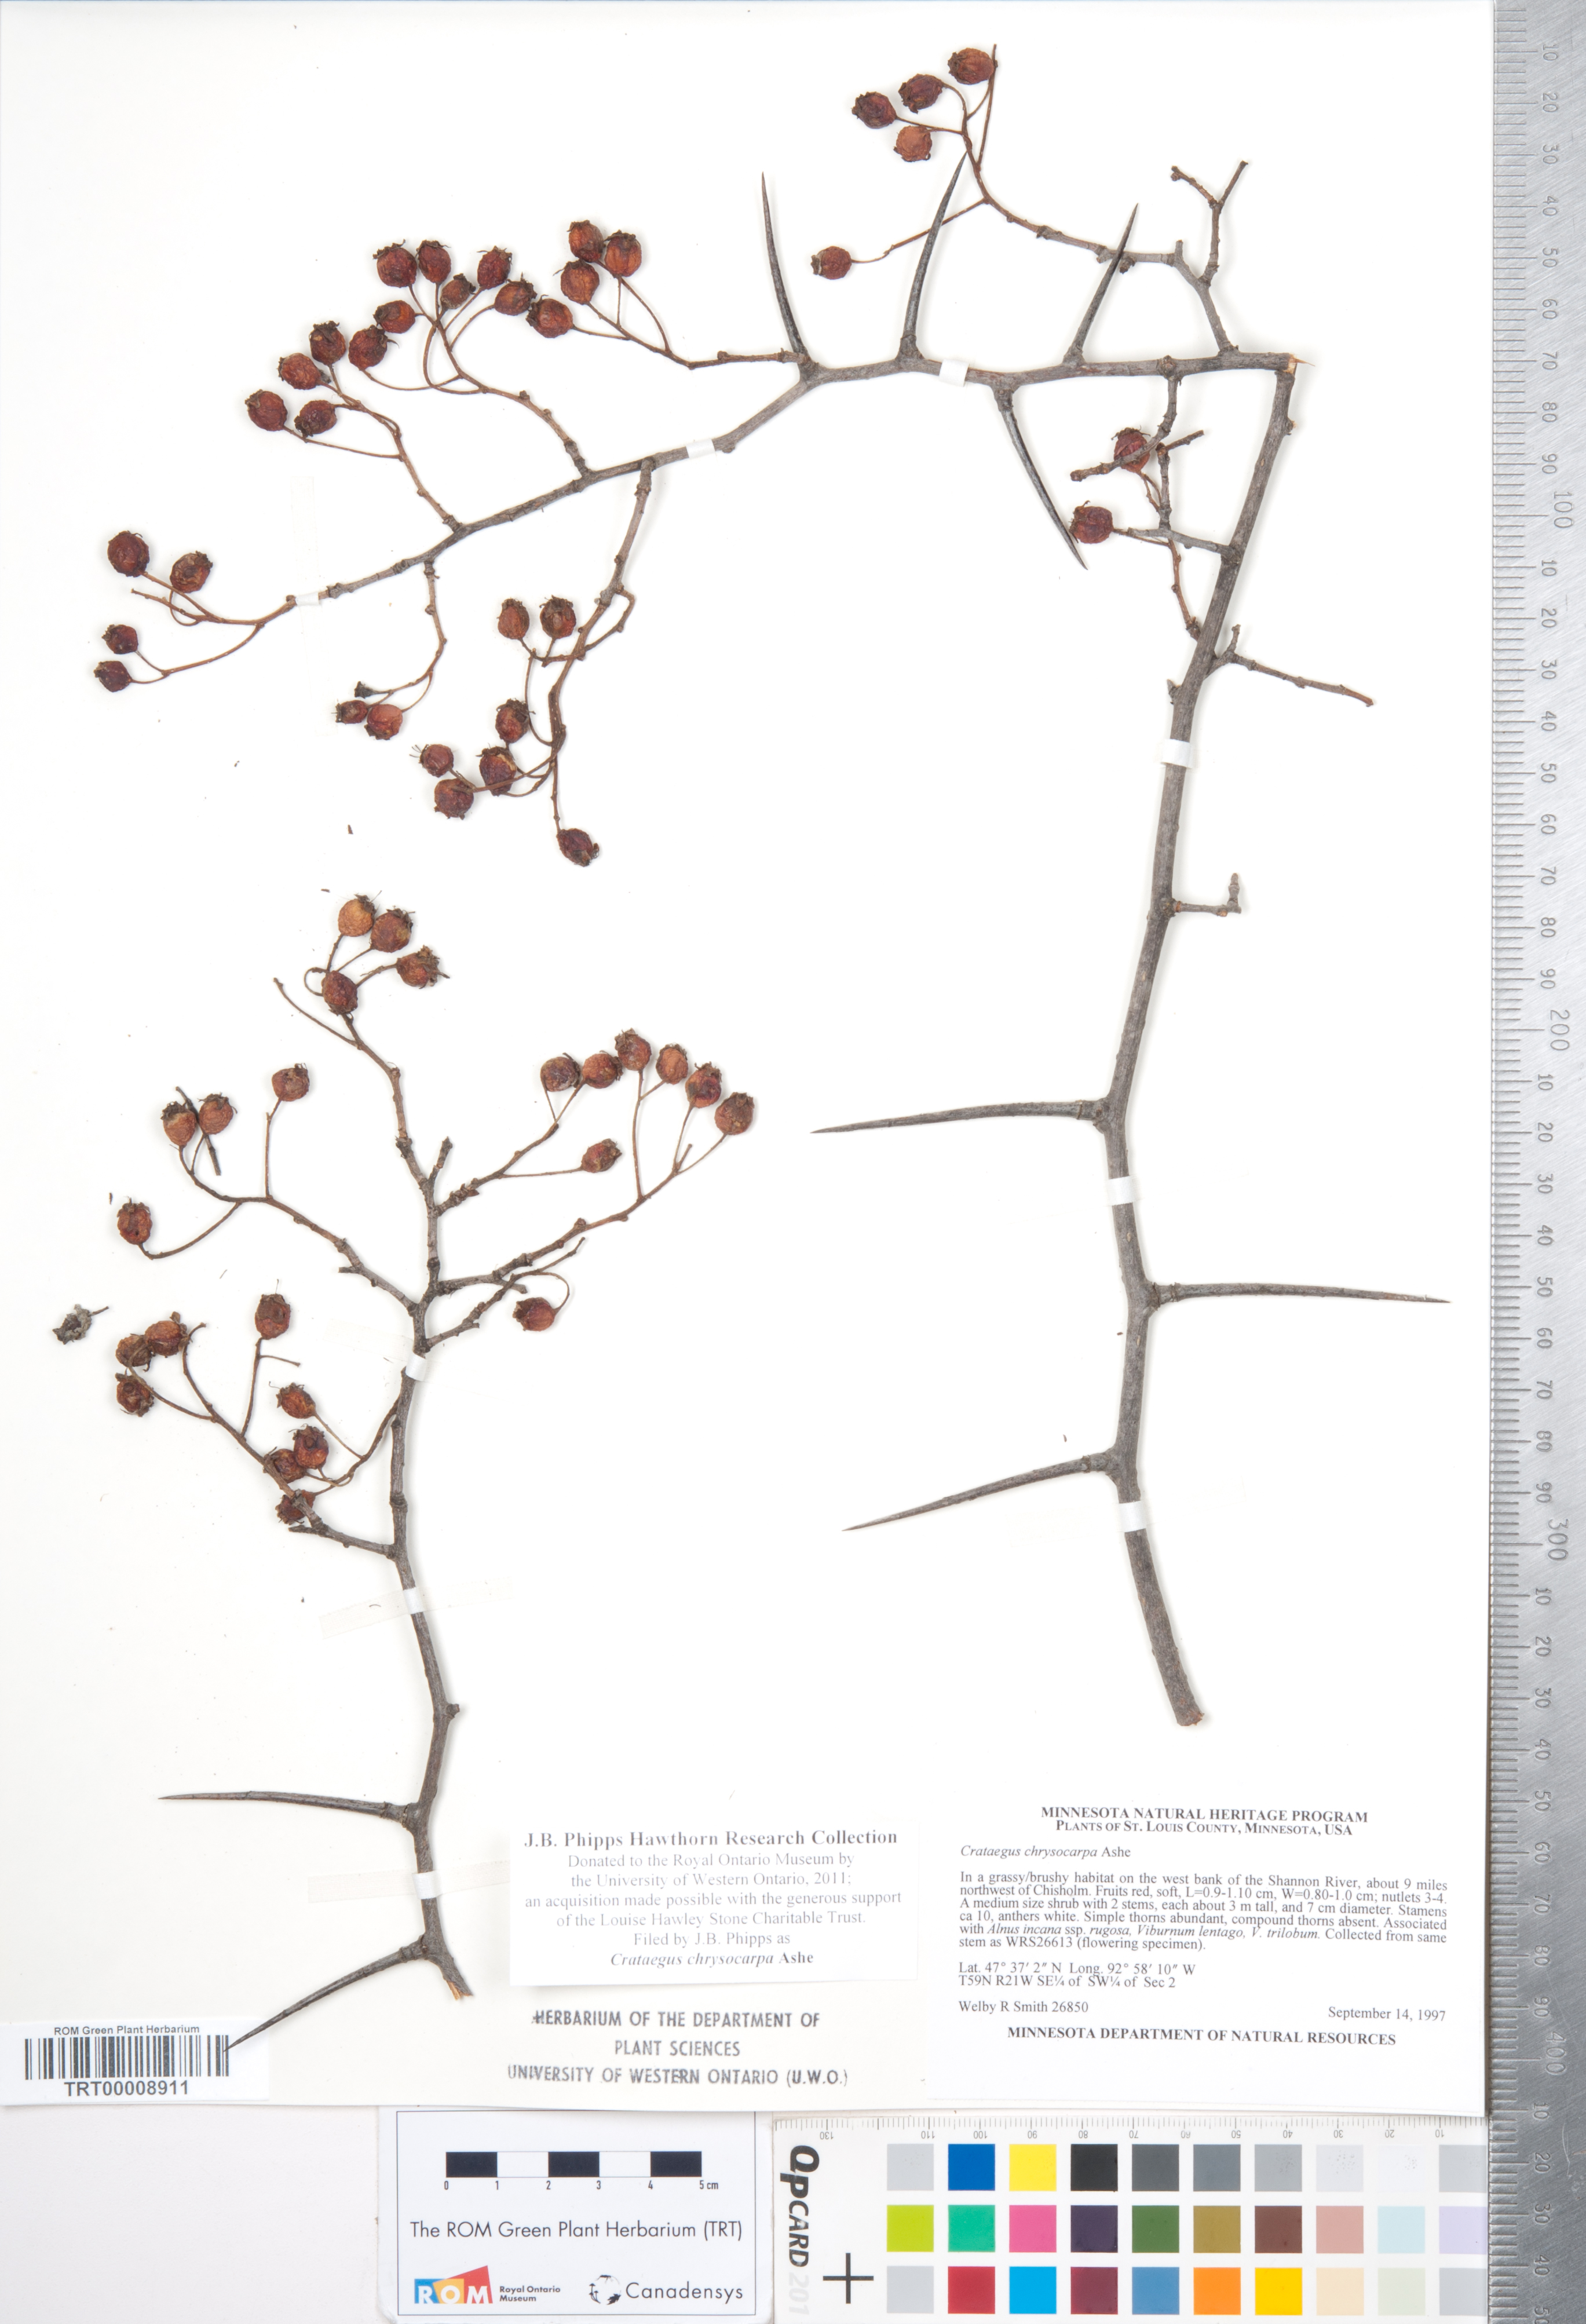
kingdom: Plantae
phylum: Tracheophyta
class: Magnoliopsida
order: Rosales
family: Rosaceae
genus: Crataegus
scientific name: Crataegus chrysocarpa
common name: Fire-berry hawthorn
